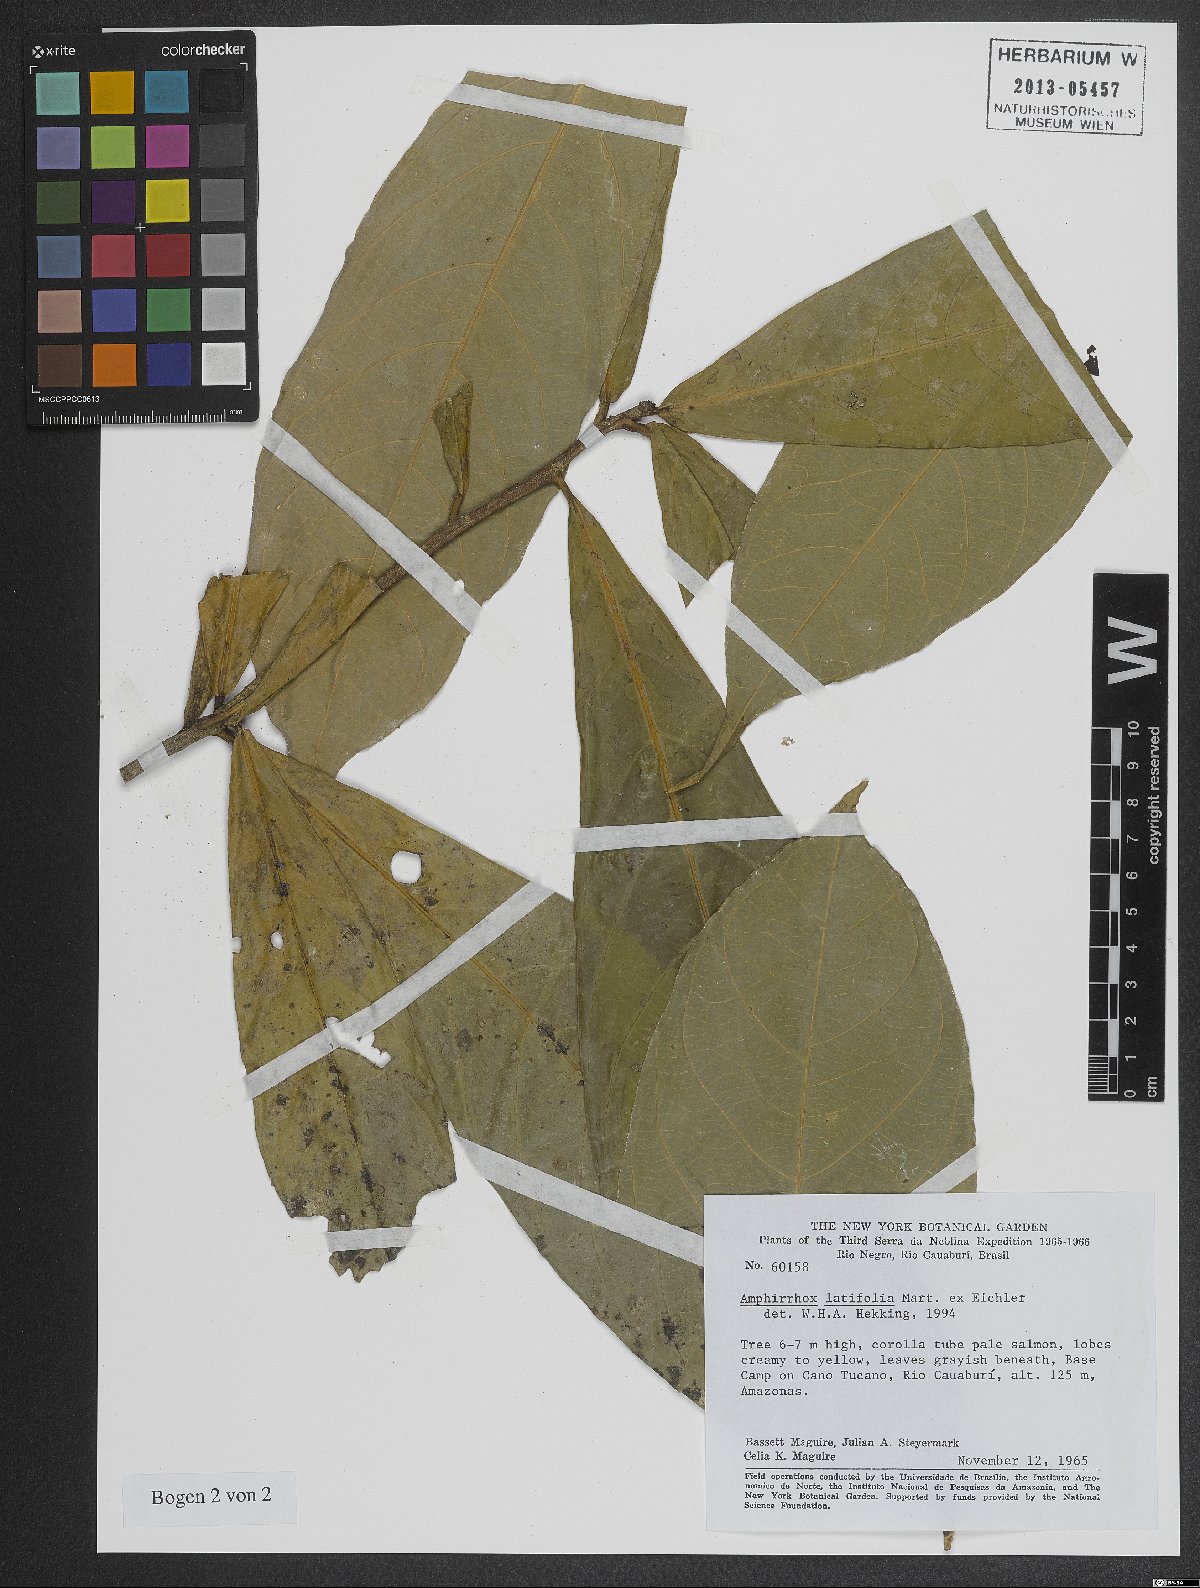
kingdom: Plantae
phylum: Tracheophyta
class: Magnoliopsida
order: Malpighiales
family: Violaceae
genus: Amphirrhox
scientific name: Amphirrhox longifolia
